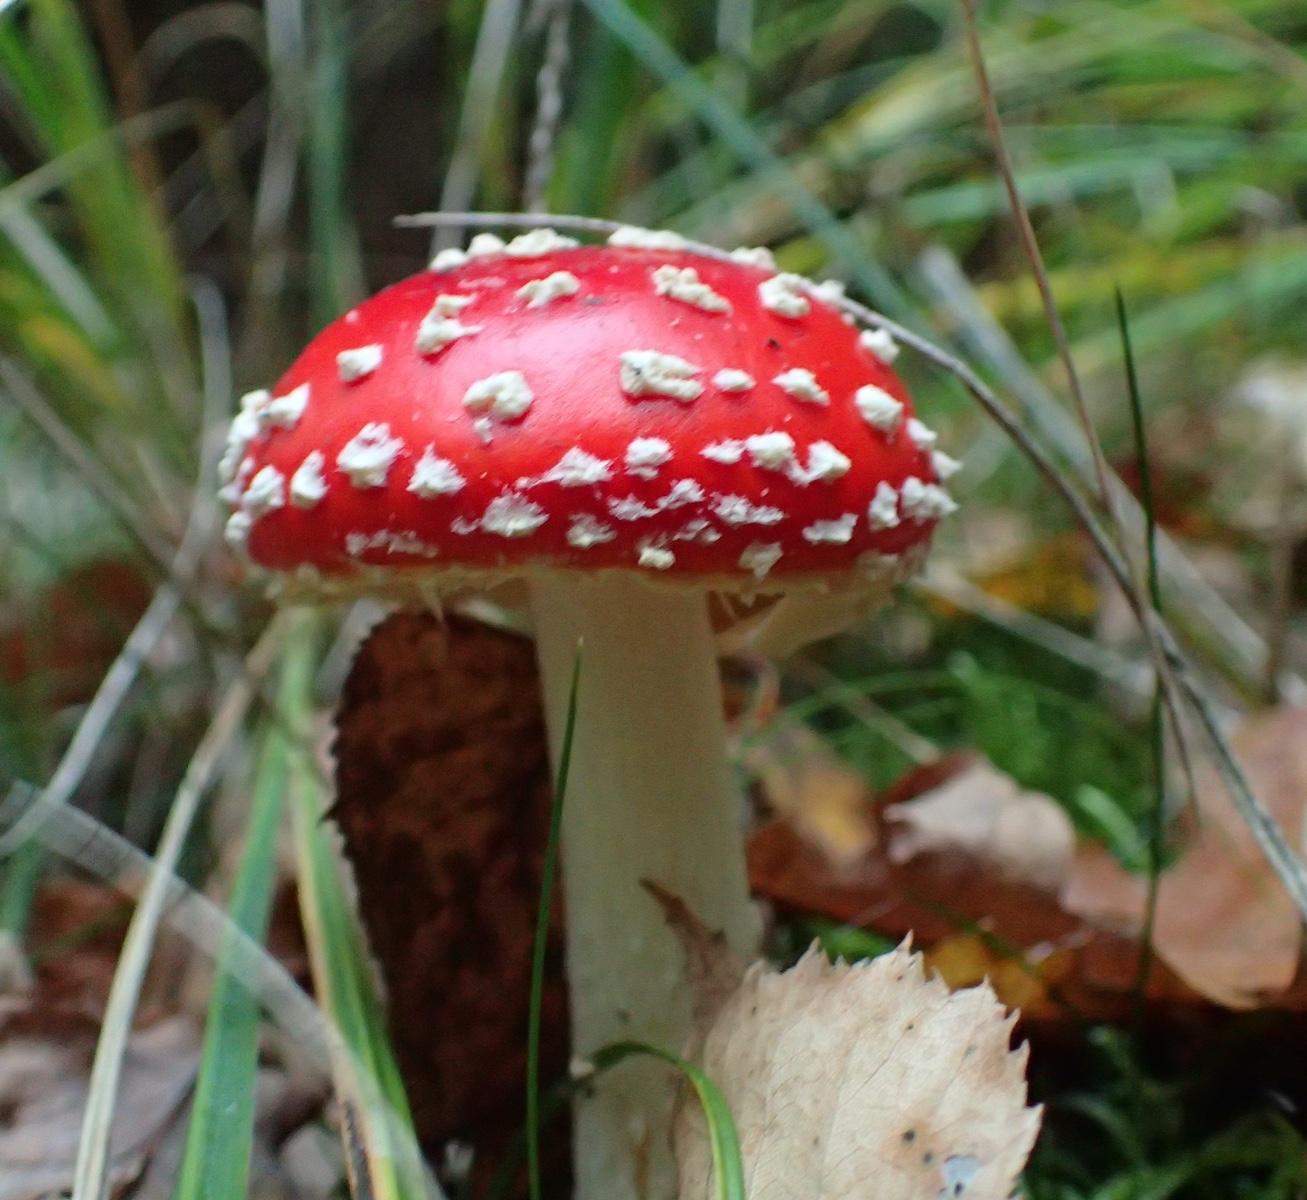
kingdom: Fungi
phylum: Basidiomycota
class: Agaricomycetes
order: Agaricales
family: Amanitaceae
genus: Amanita
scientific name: Amanita muscaria
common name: rød fluesvamp
